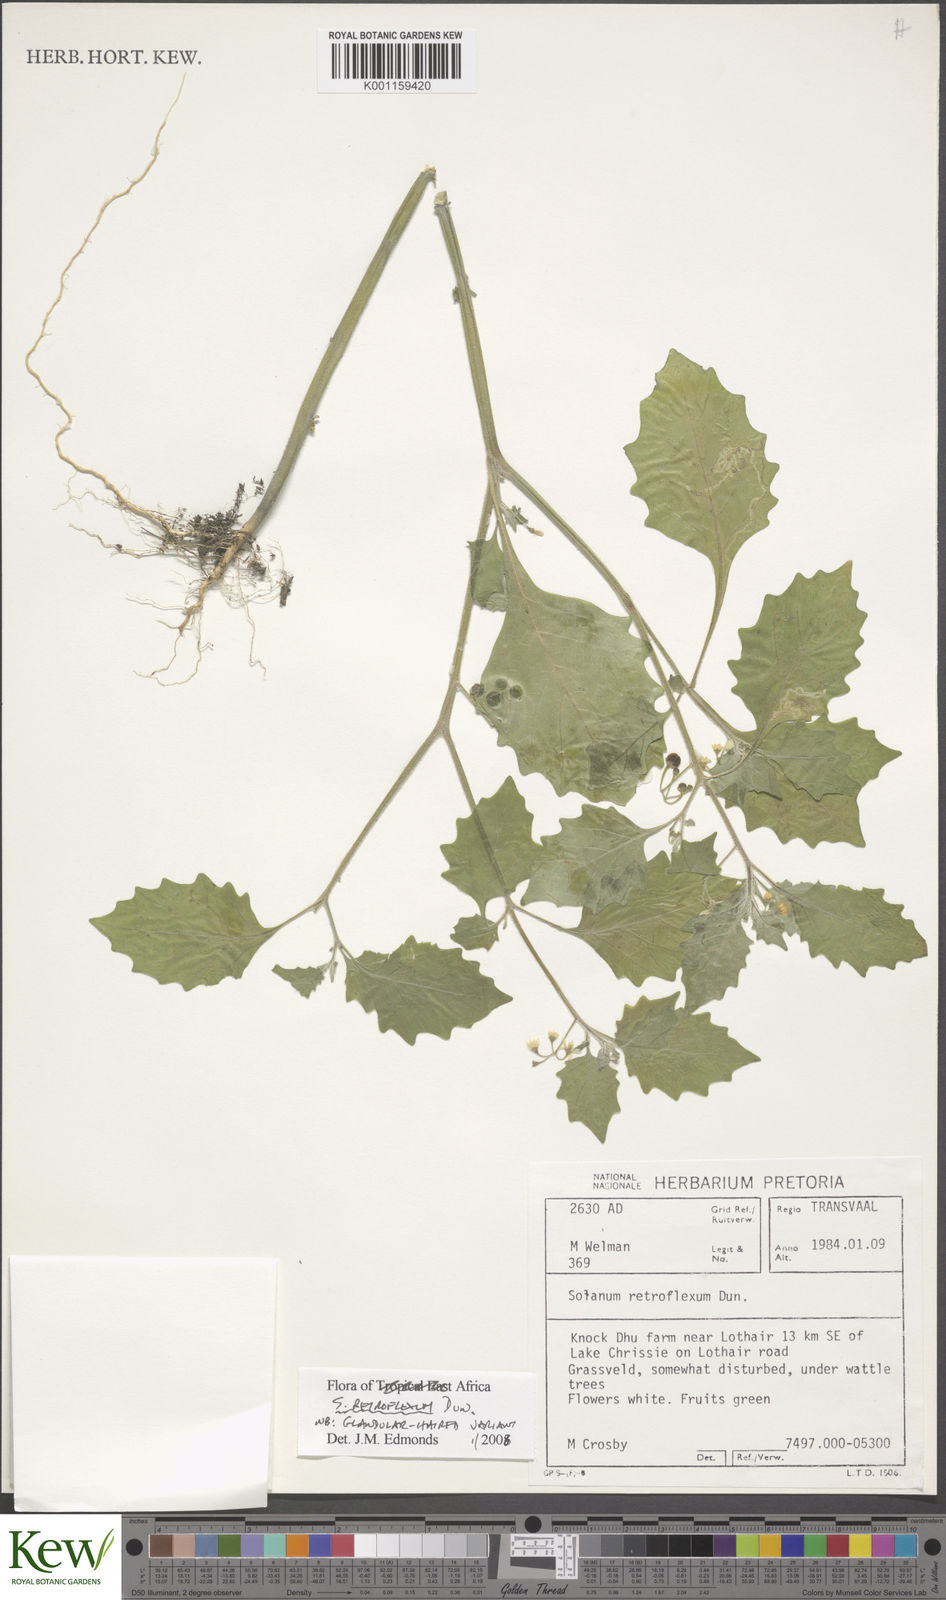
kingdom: Plantae
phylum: Tracheophyta
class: Magnoliopsida
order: Solanales
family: Solanaceae
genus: Solanum
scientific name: Solanum retroflexum
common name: Wonderberry
